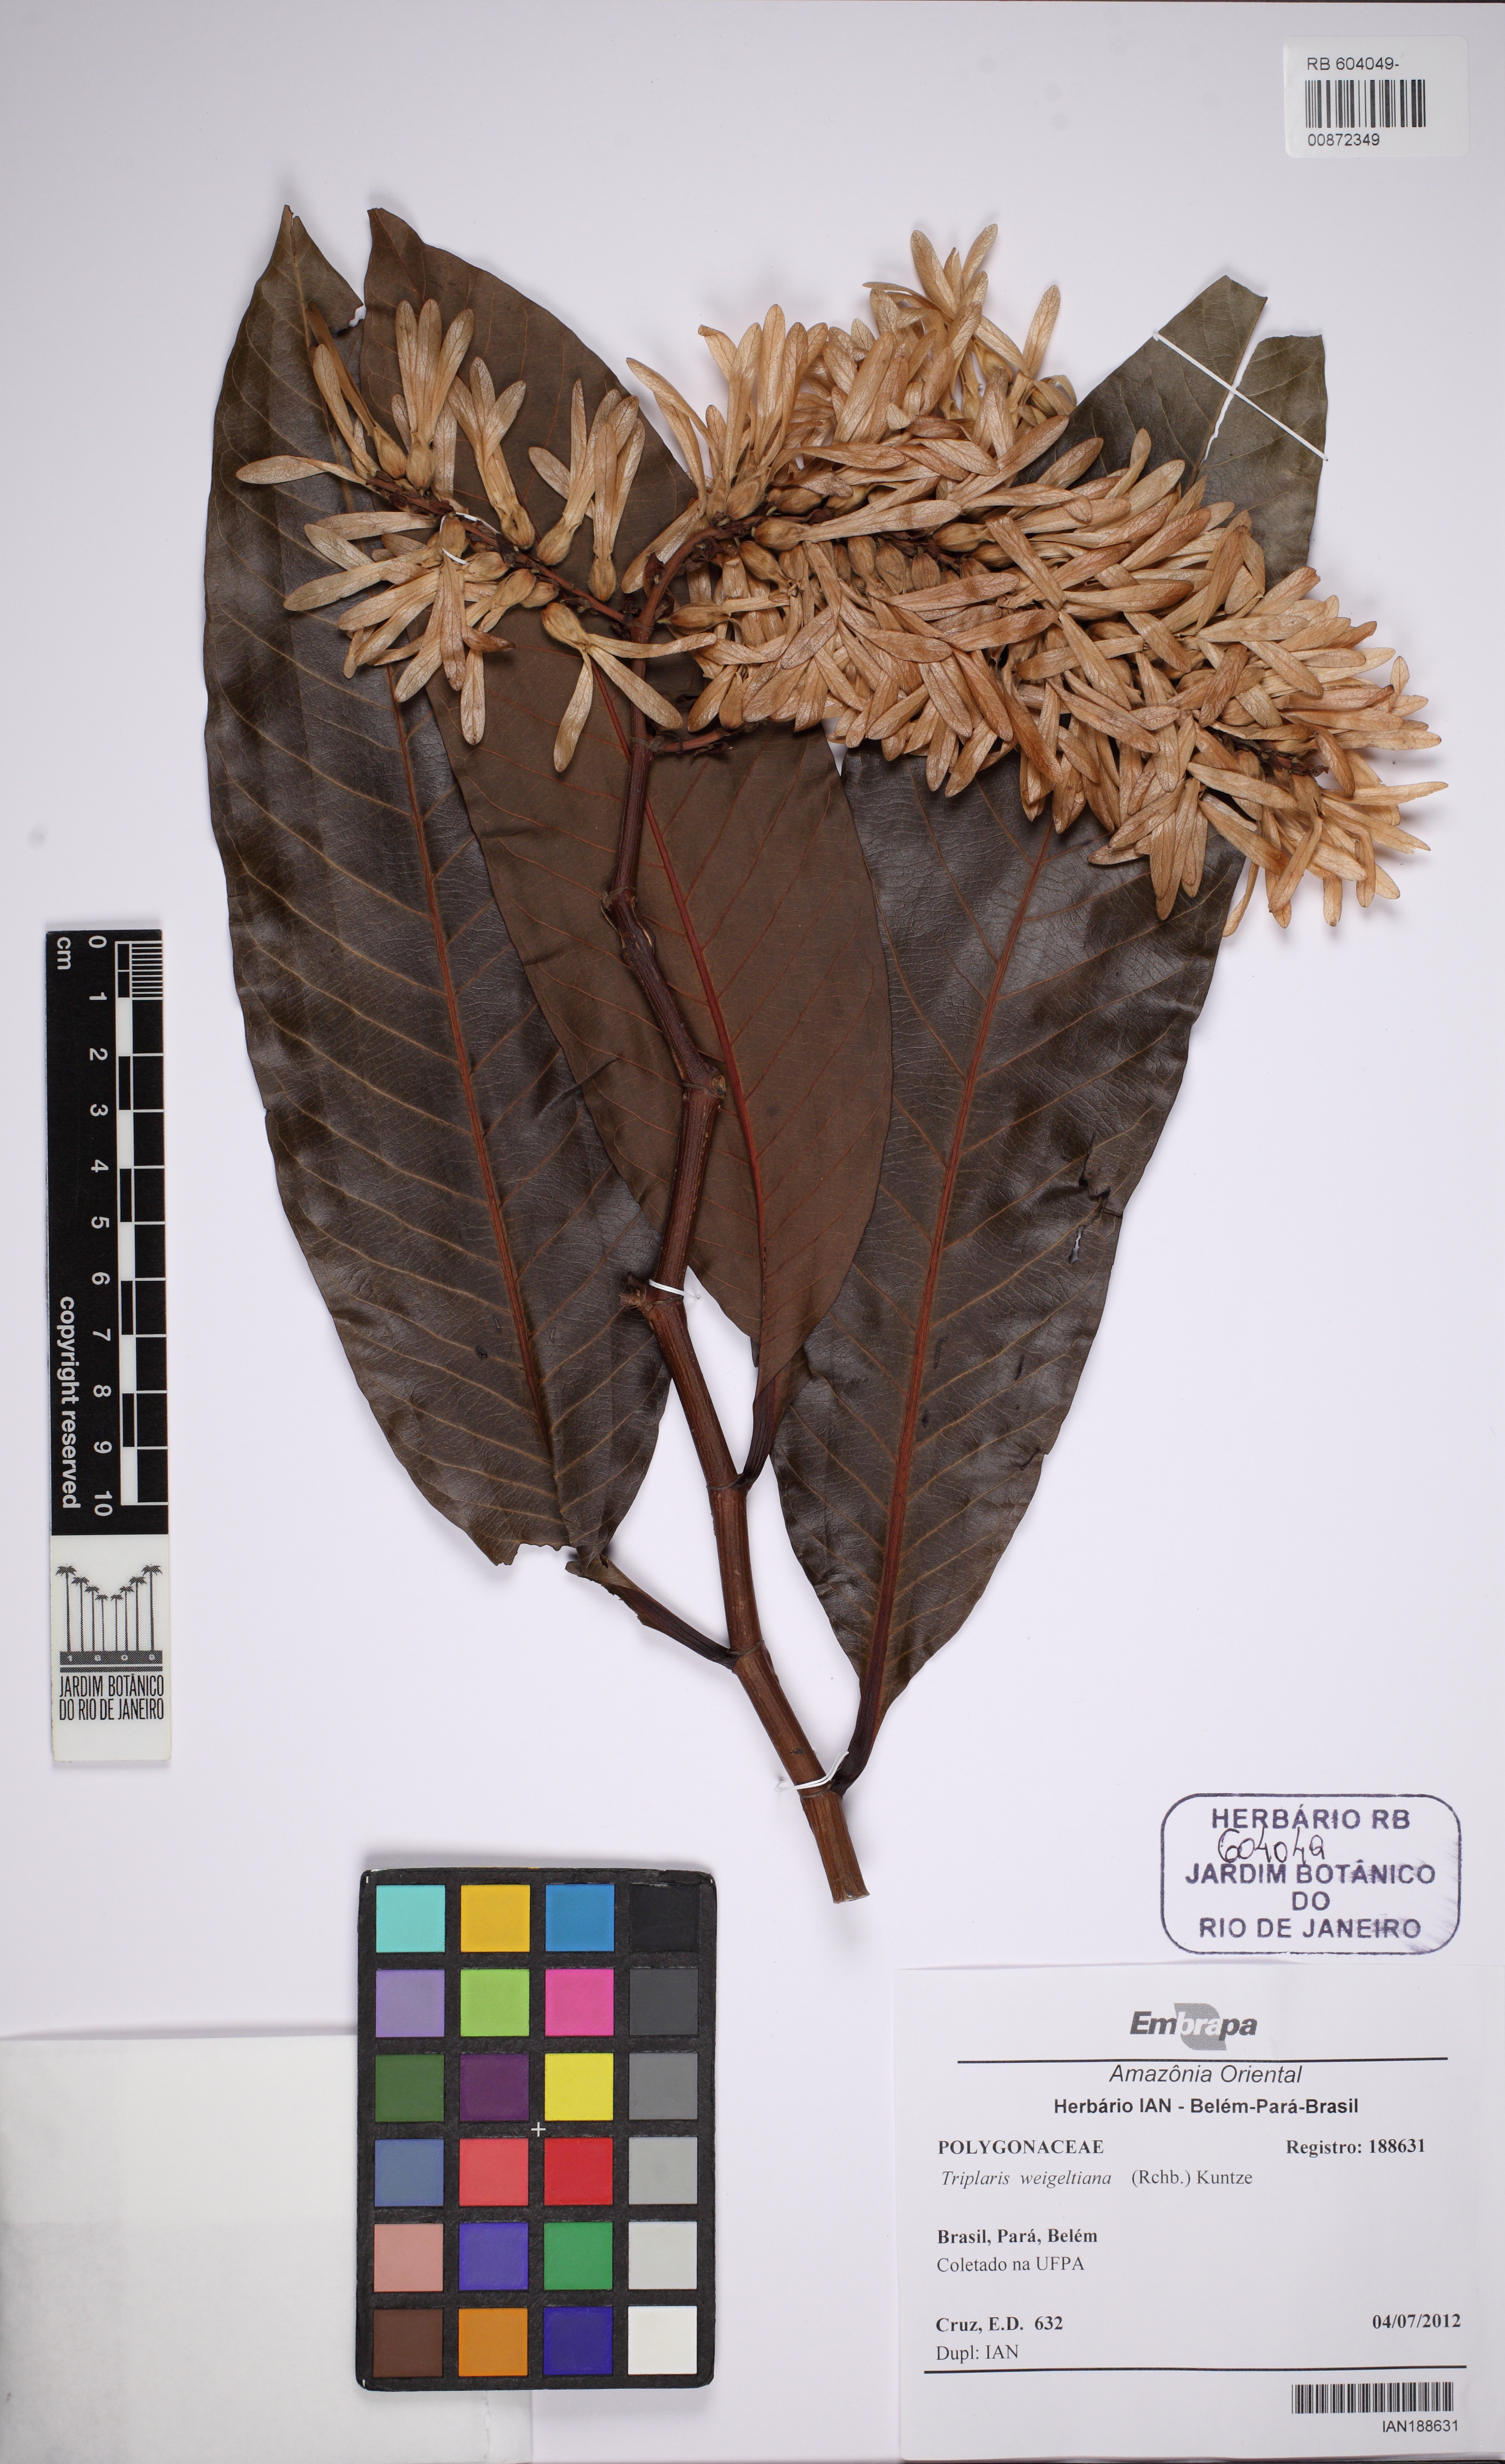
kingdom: Plantae
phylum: Tracheophyta
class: Magnoliopsida
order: Caryophyllales
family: Polygonaceae
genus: Triplaris
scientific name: Triplaris weigeltiana
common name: Long john
